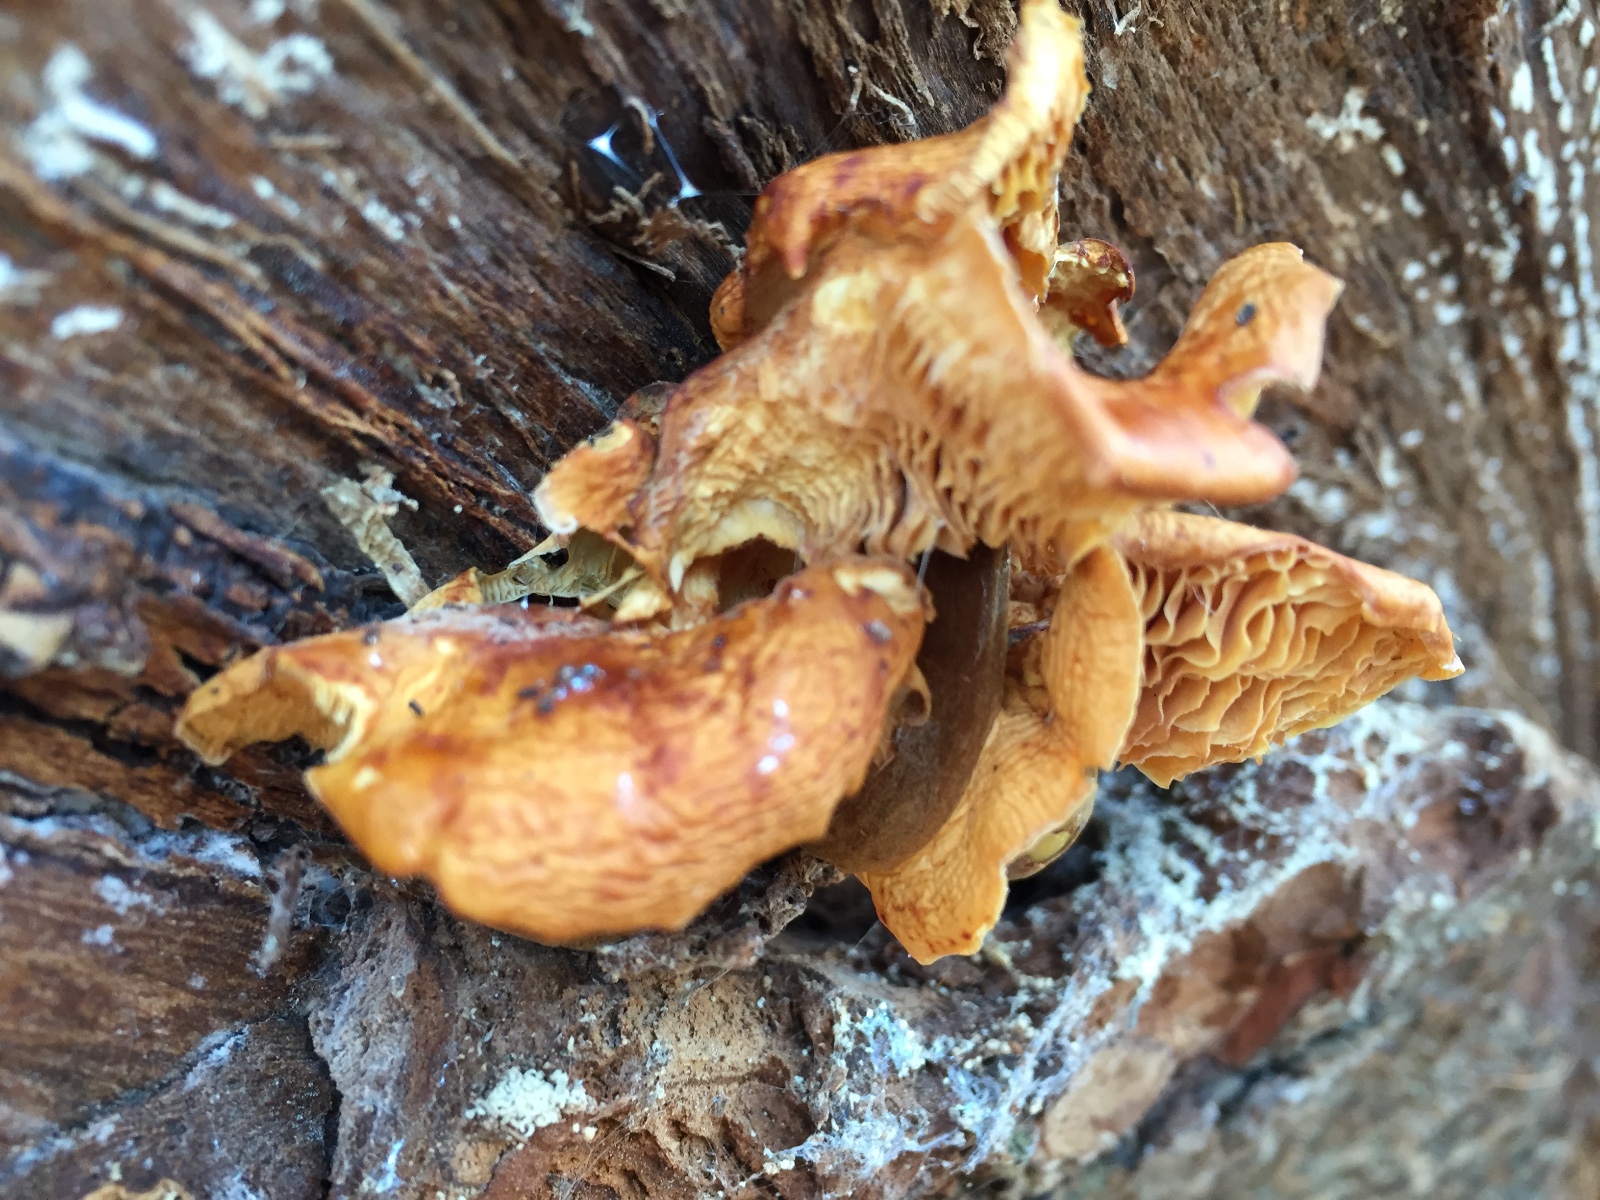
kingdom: Fungi
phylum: Basidiomycota
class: Agaricomycetes
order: Agaricales
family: Physalacriaceae
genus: Flammulina
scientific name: Flammulina velutipes
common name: gul fløjlsfod
